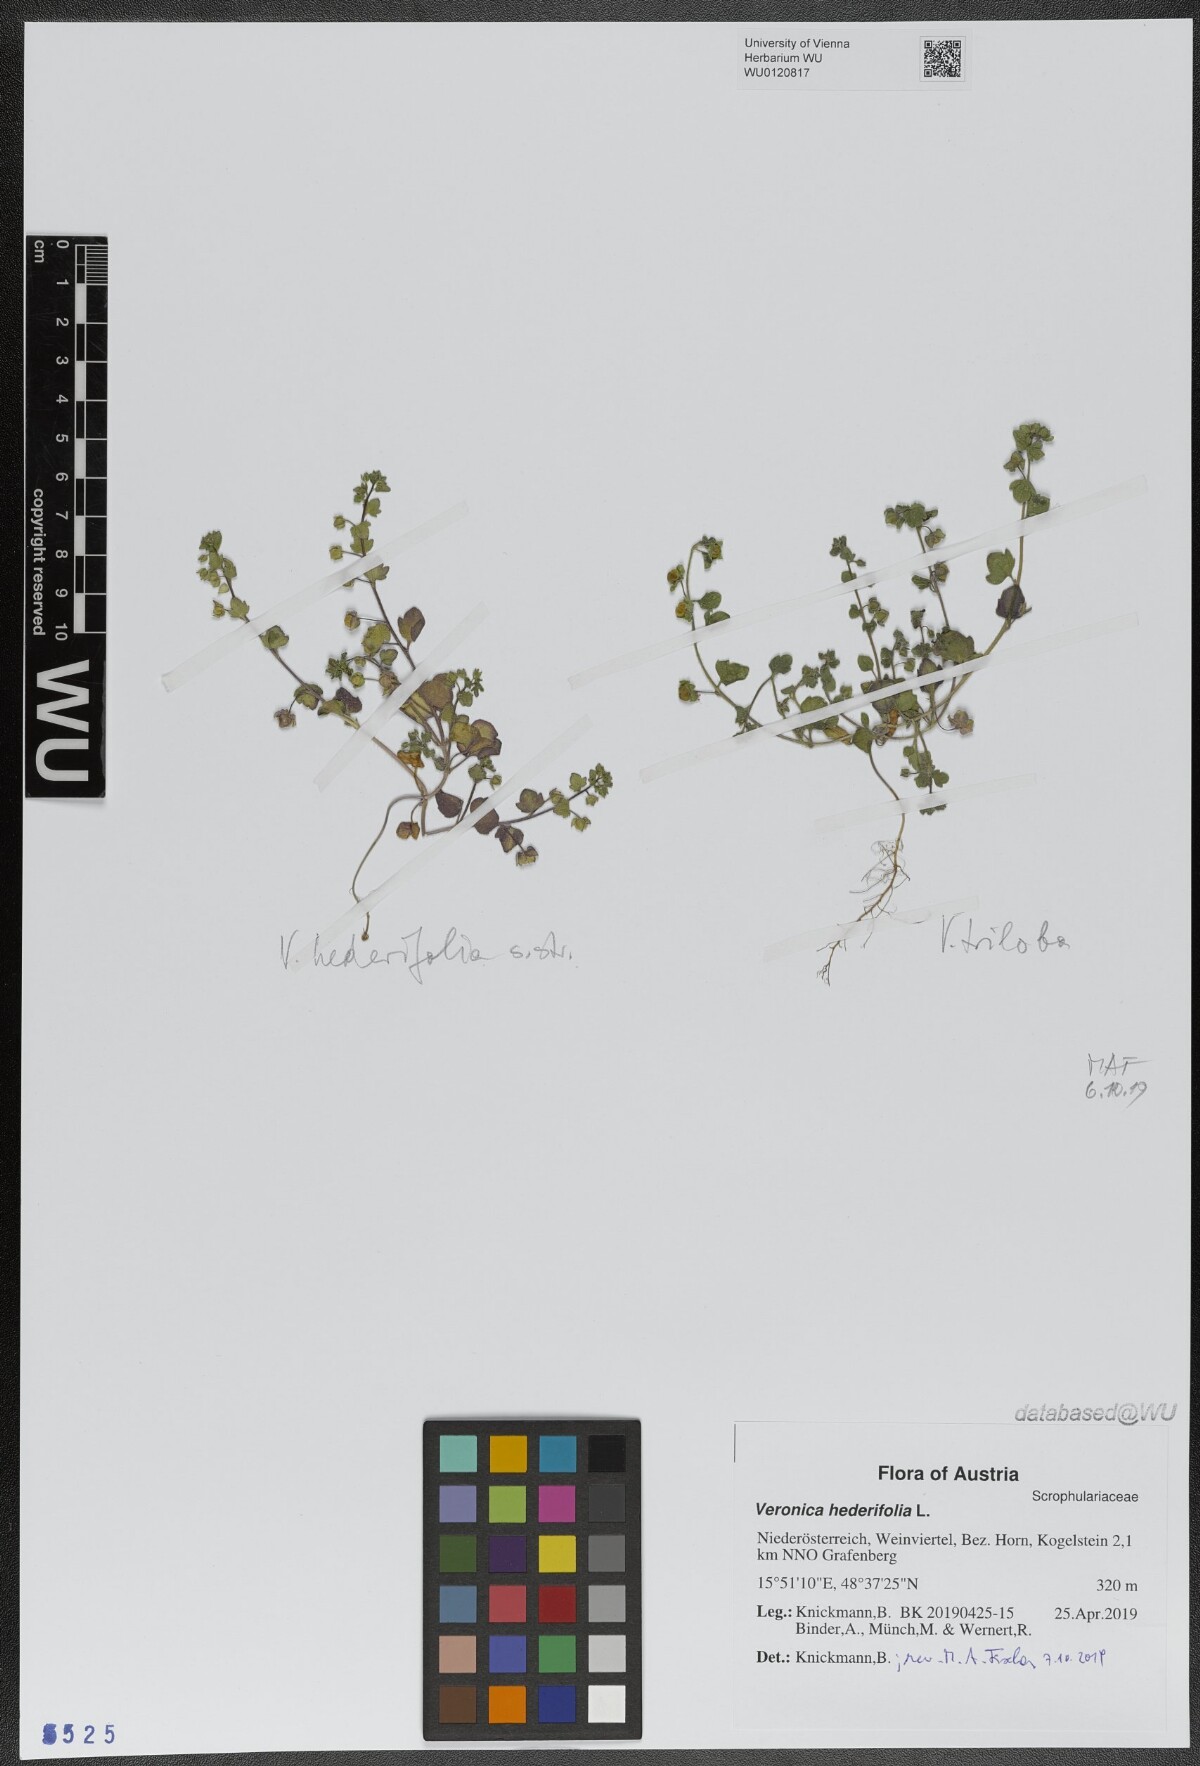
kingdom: Plantae
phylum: Tracheophyta
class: Magnoliopsida
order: Lamiales
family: Plantaginaceae
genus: Veronica
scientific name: Veronica hederifolia
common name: Ivy-leaved speedwell
